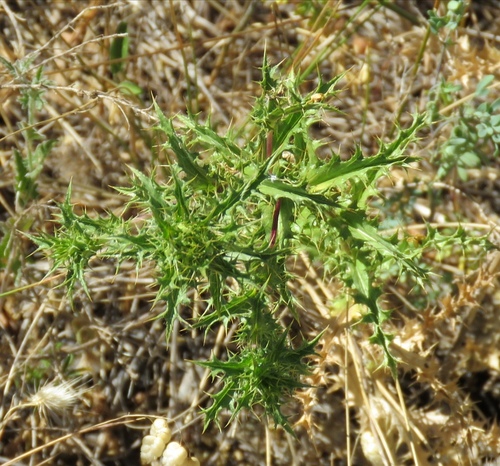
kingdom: Plantae
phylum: Tracheophyta
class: Magnoliopsida
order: Asterales
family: Asteraceae
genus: Carlina
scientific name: Carlina hispanica
